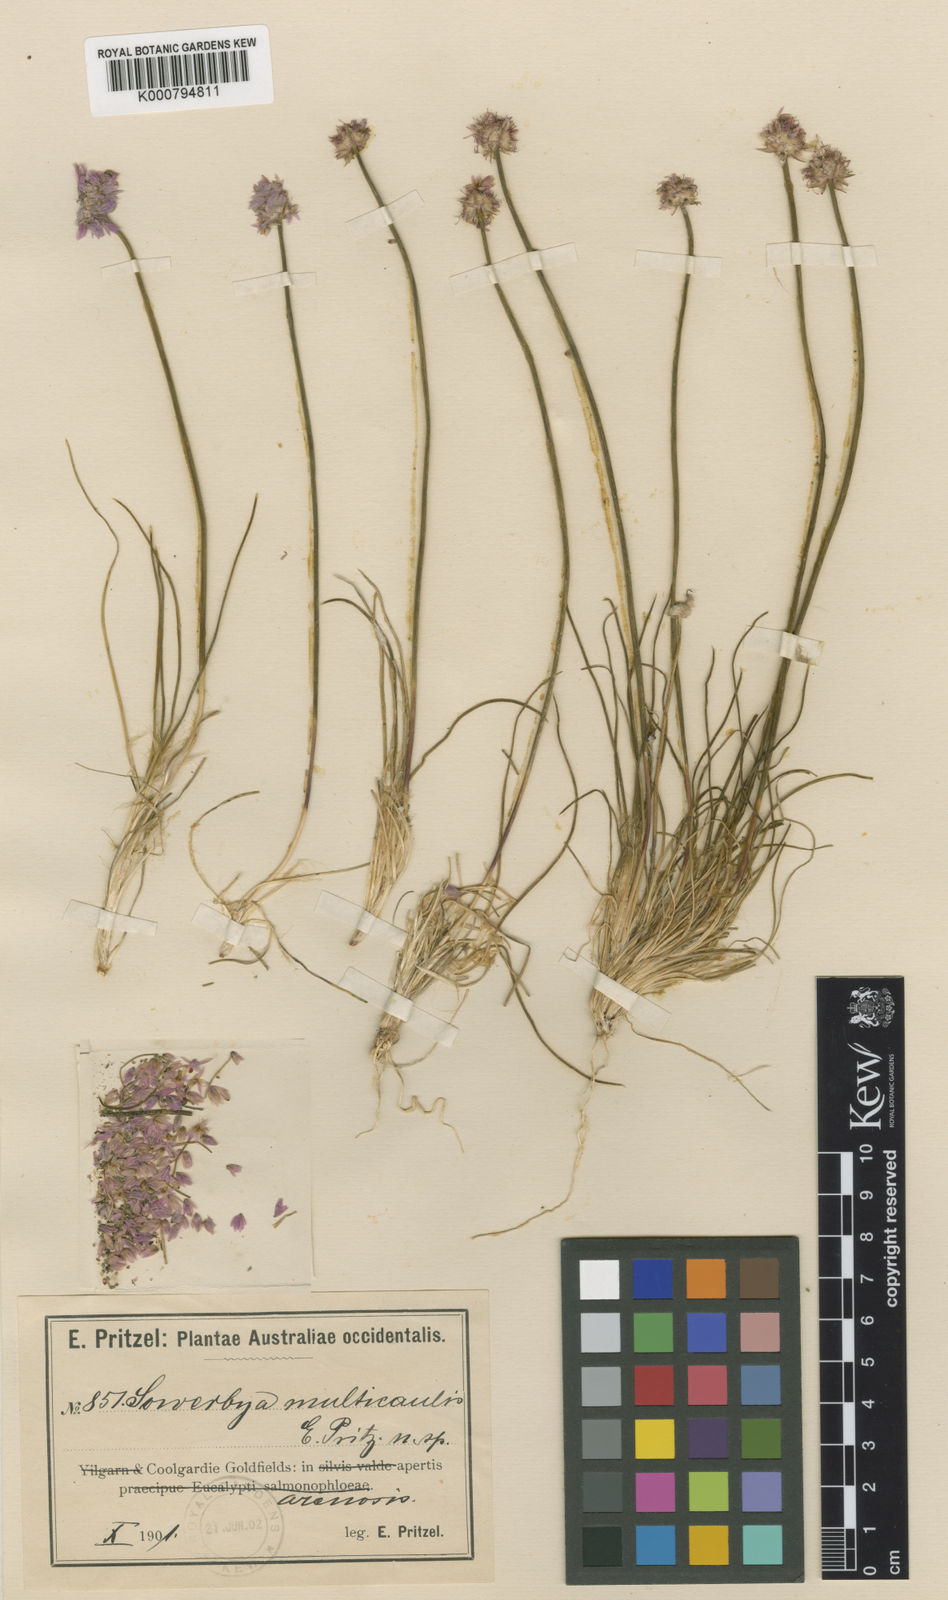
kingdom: Plantae
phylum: Tracheophyta
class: Liliopsida
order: Asparagales
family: Asparagaceae
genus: Sowerbaea
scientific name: Sowerbaea multicaulis
